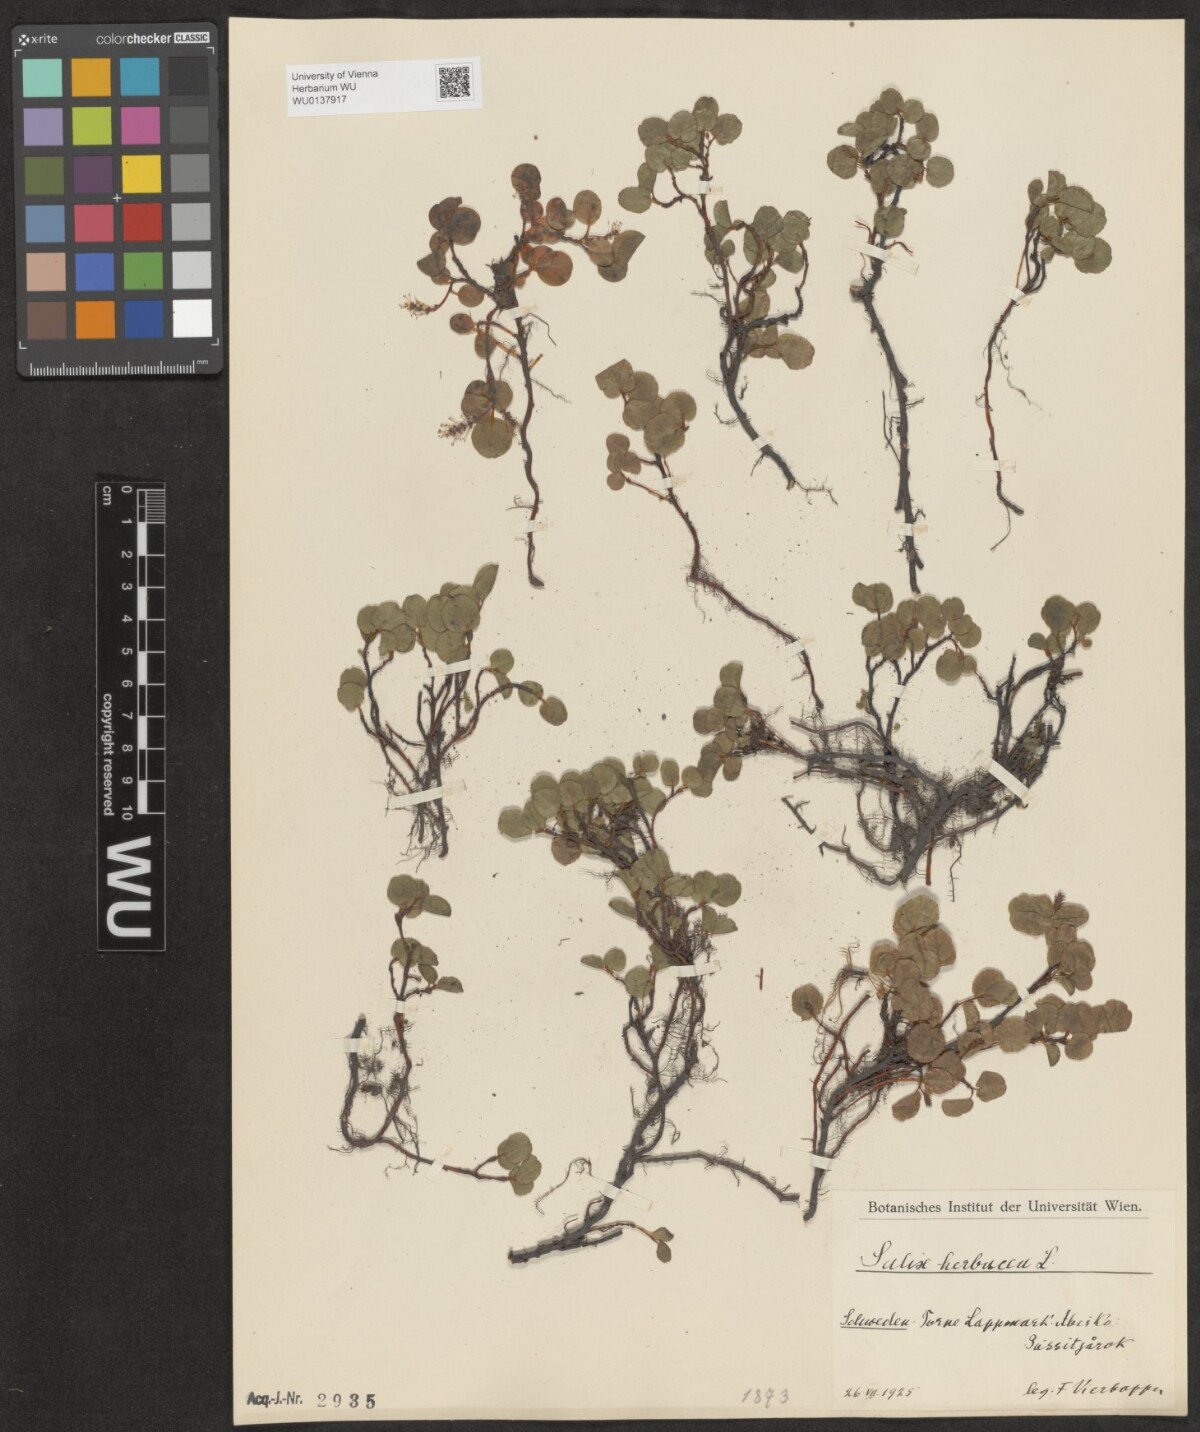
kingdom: Plantae
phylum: Tracheophyta
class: Magnoliopsida
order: Malpighiales
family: Salicaceae
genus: Salix
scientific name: Salix herbacea
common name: Dwarf willow
